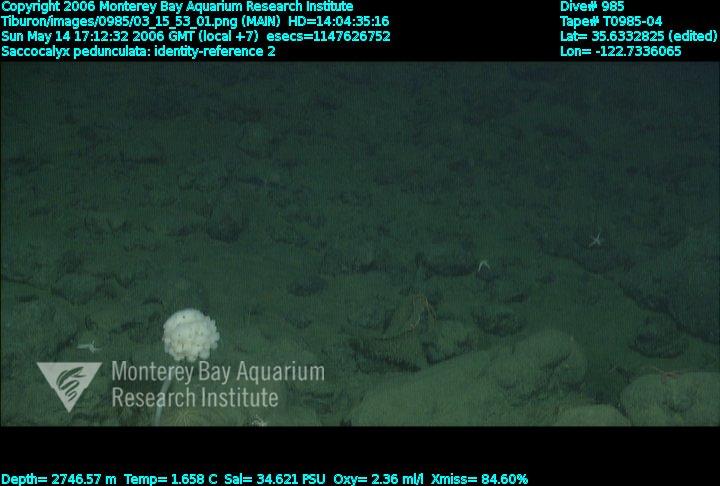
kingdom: Animalia
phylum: Porifera
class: Hexactinellida
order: Lyssacinosida
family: Euplectellidae
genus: Saccocalyx
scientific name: Saccocalyx pedunculatus
